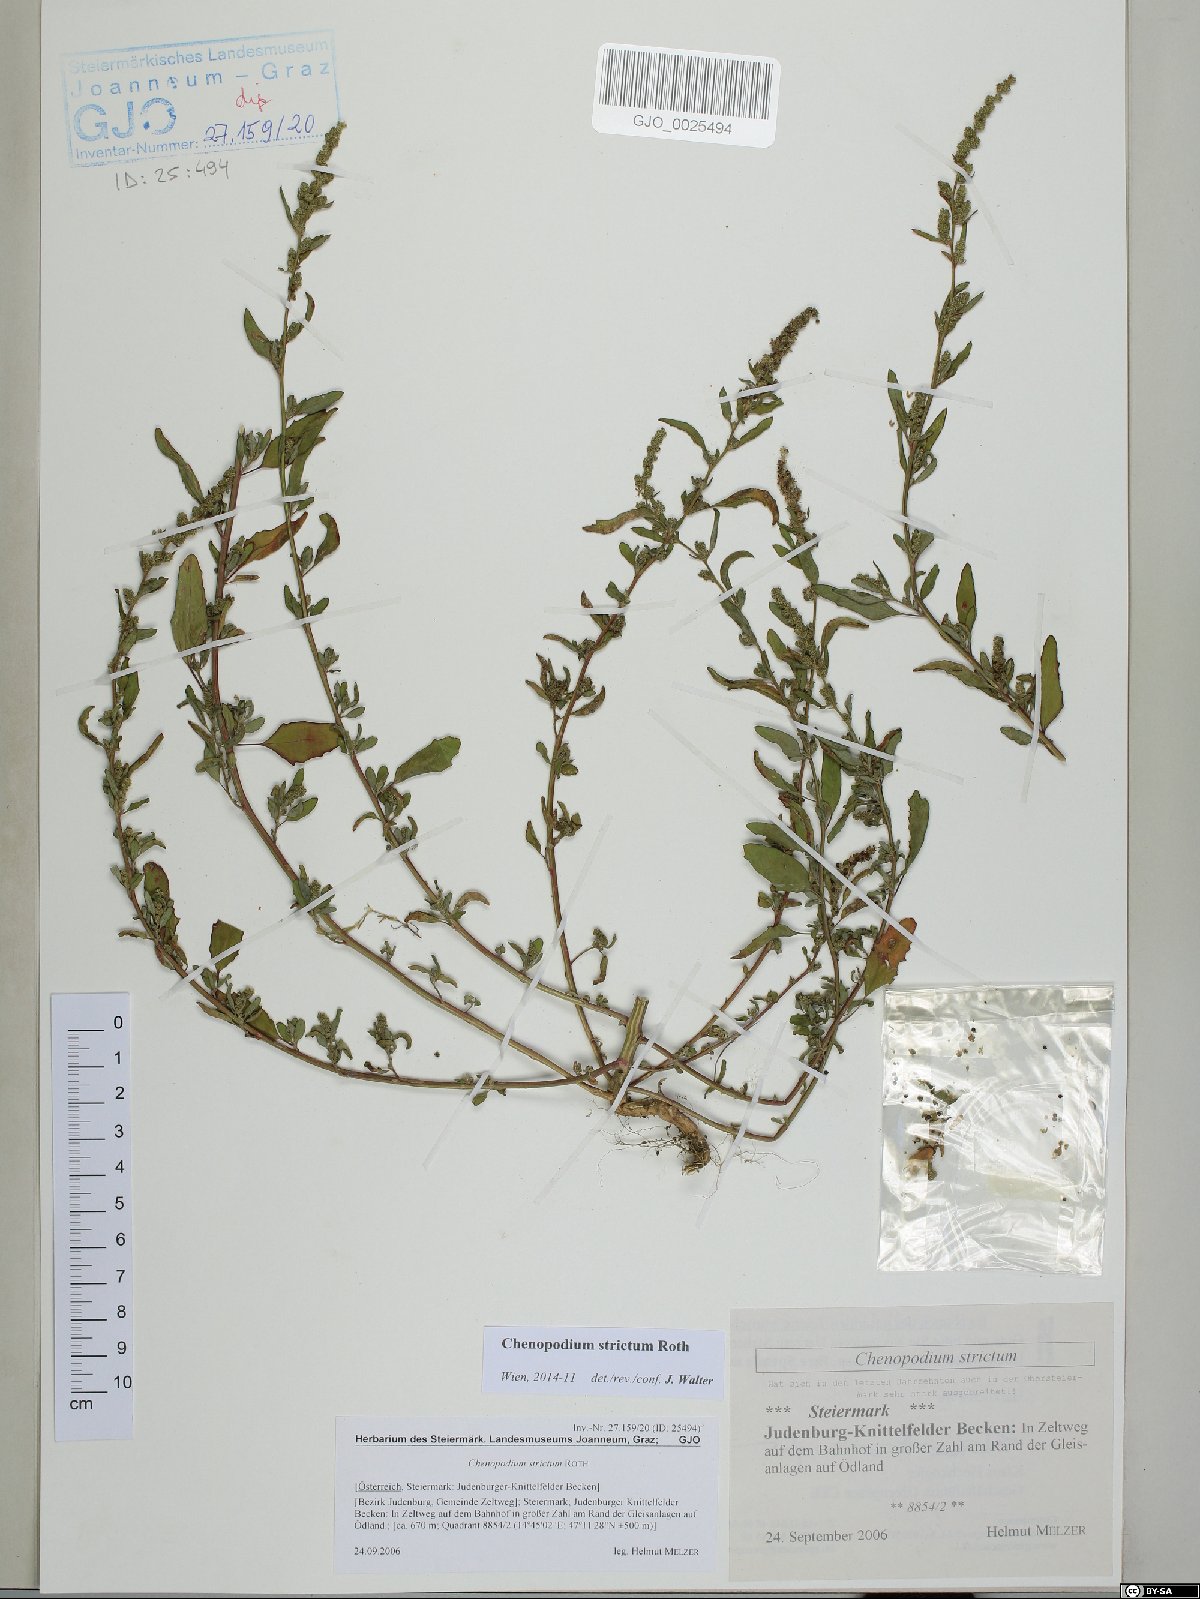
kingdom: Plantae
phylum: Tracheophyta
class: Magnoliopsida
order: Caryophyllales
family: Amaranthaceae
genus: Chenopodium
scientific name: Chenopodium album
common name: Fat-hen
